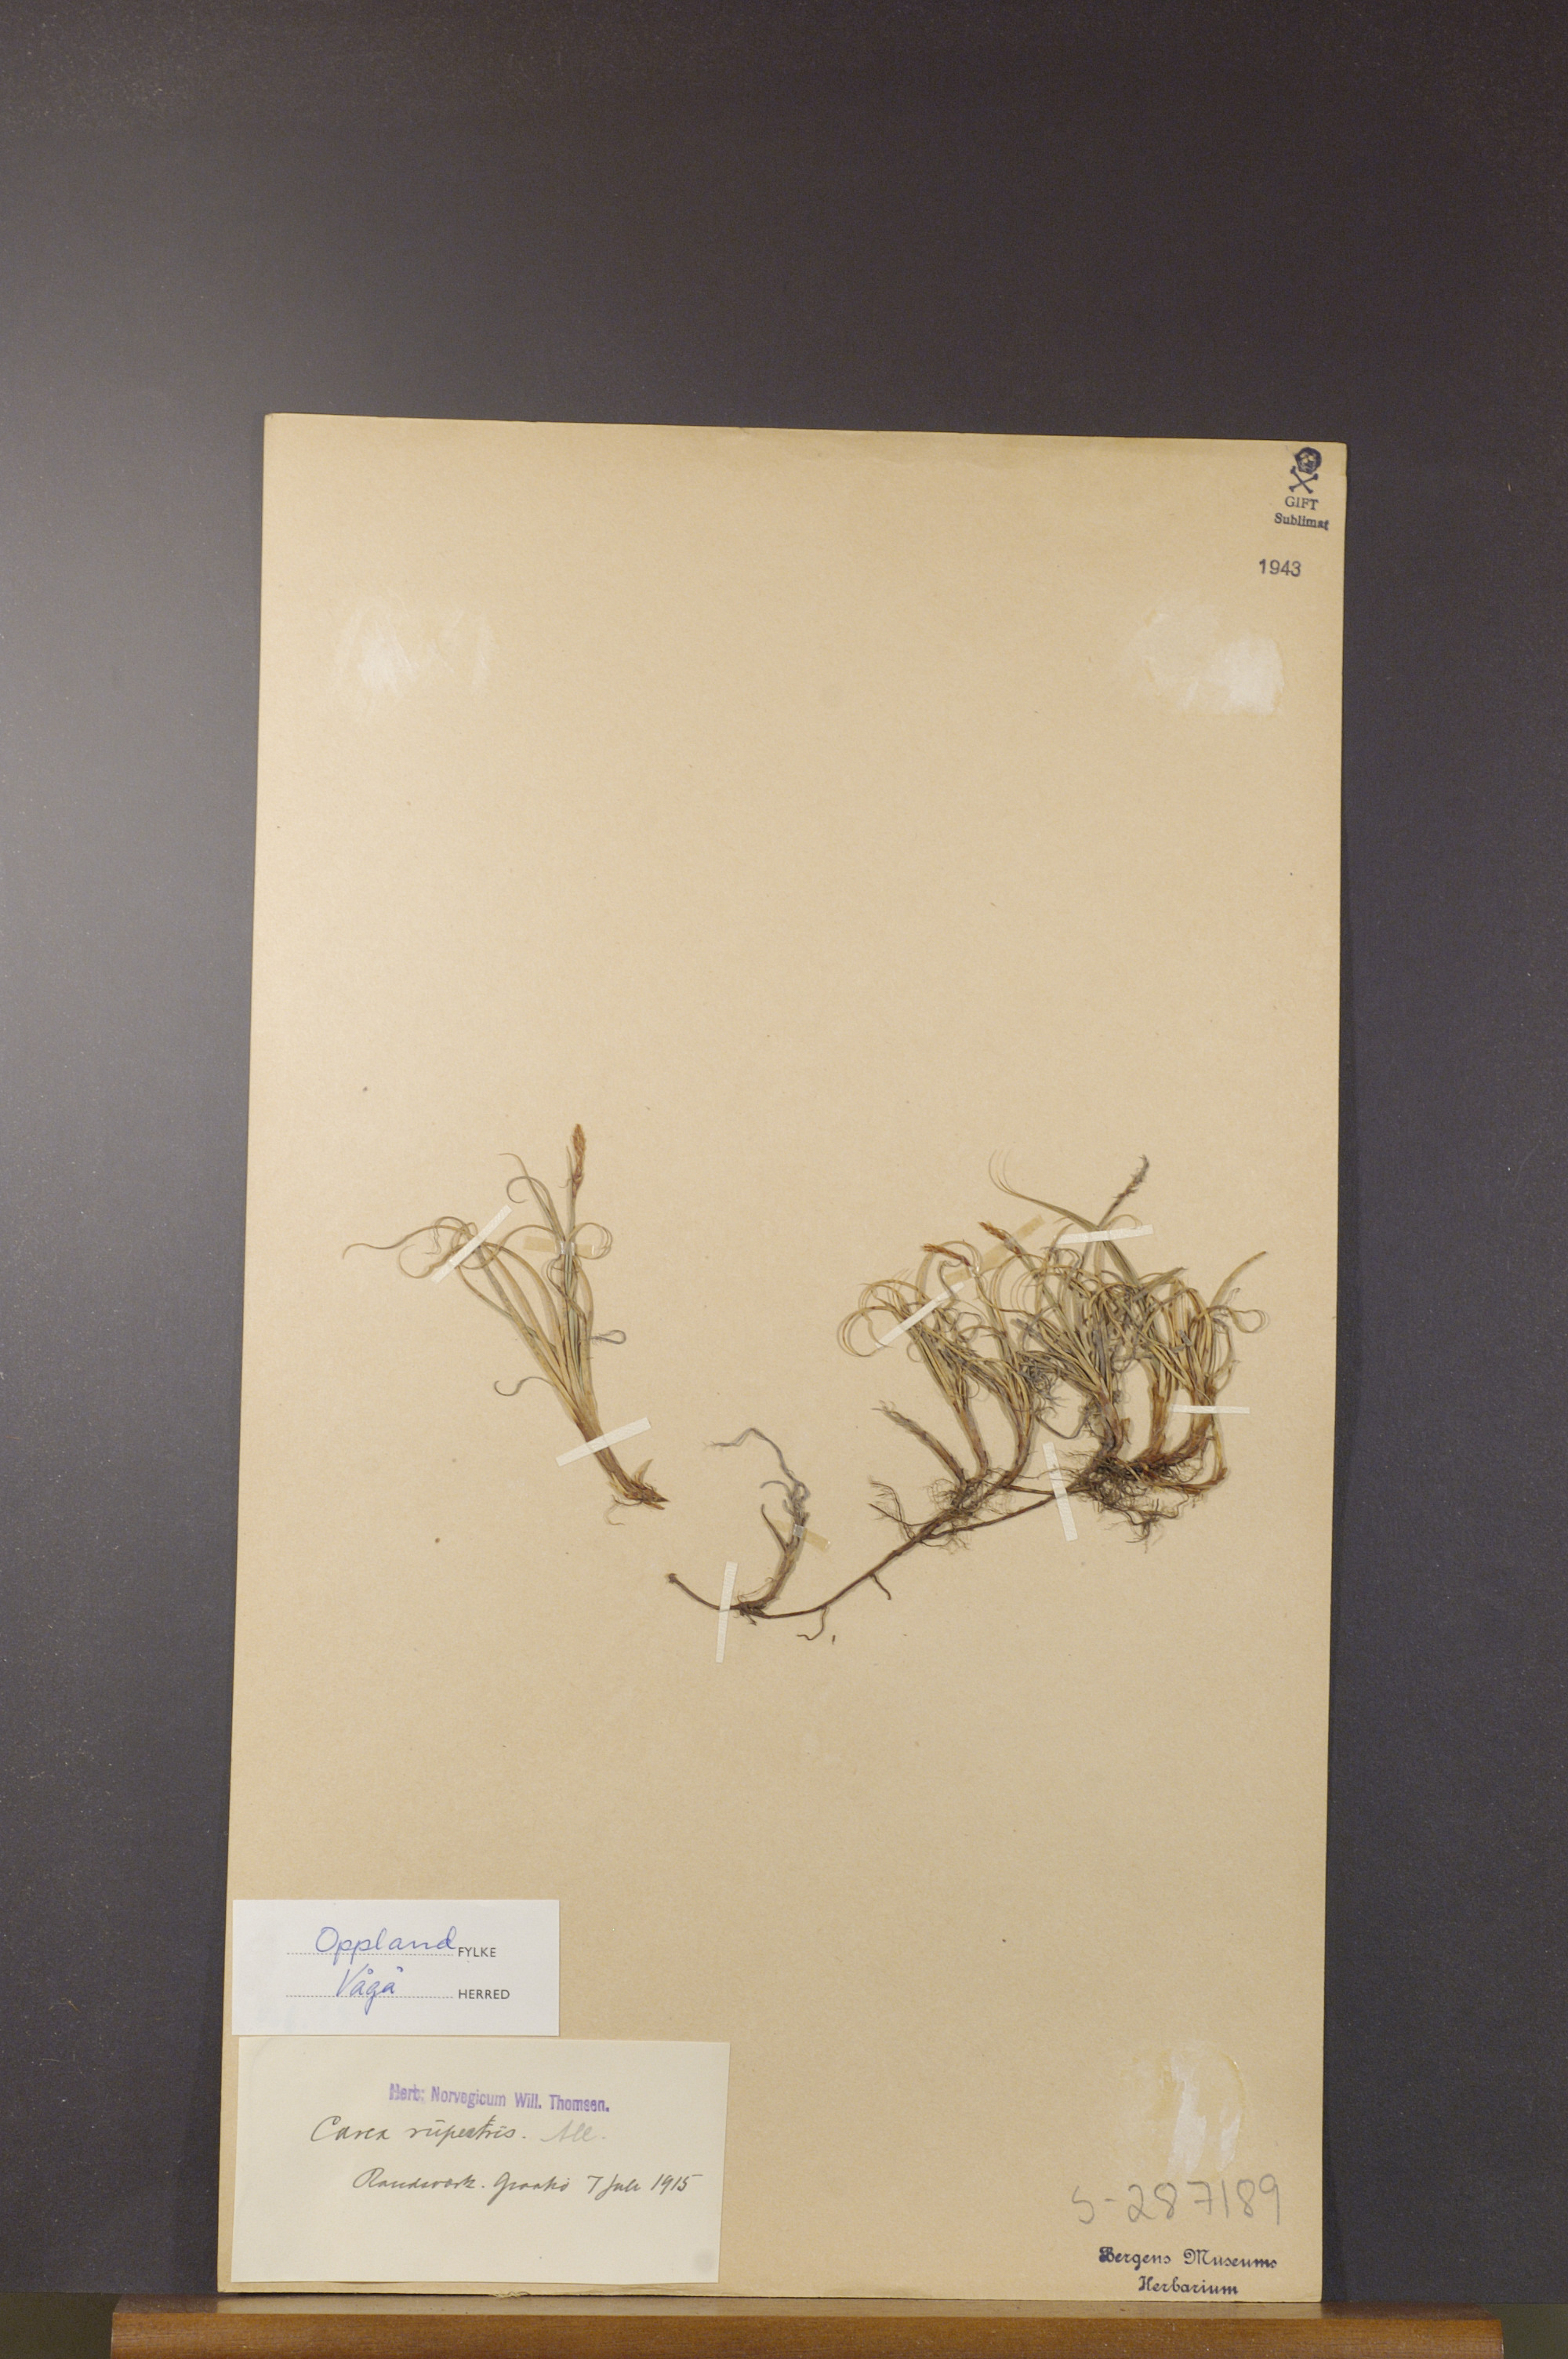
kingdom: Plantae
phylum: Tracheophyta
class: Liliopsida
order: Poales
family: Cyperaceae
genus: Carex
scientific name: Carex rupestris
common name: Rock sedge
